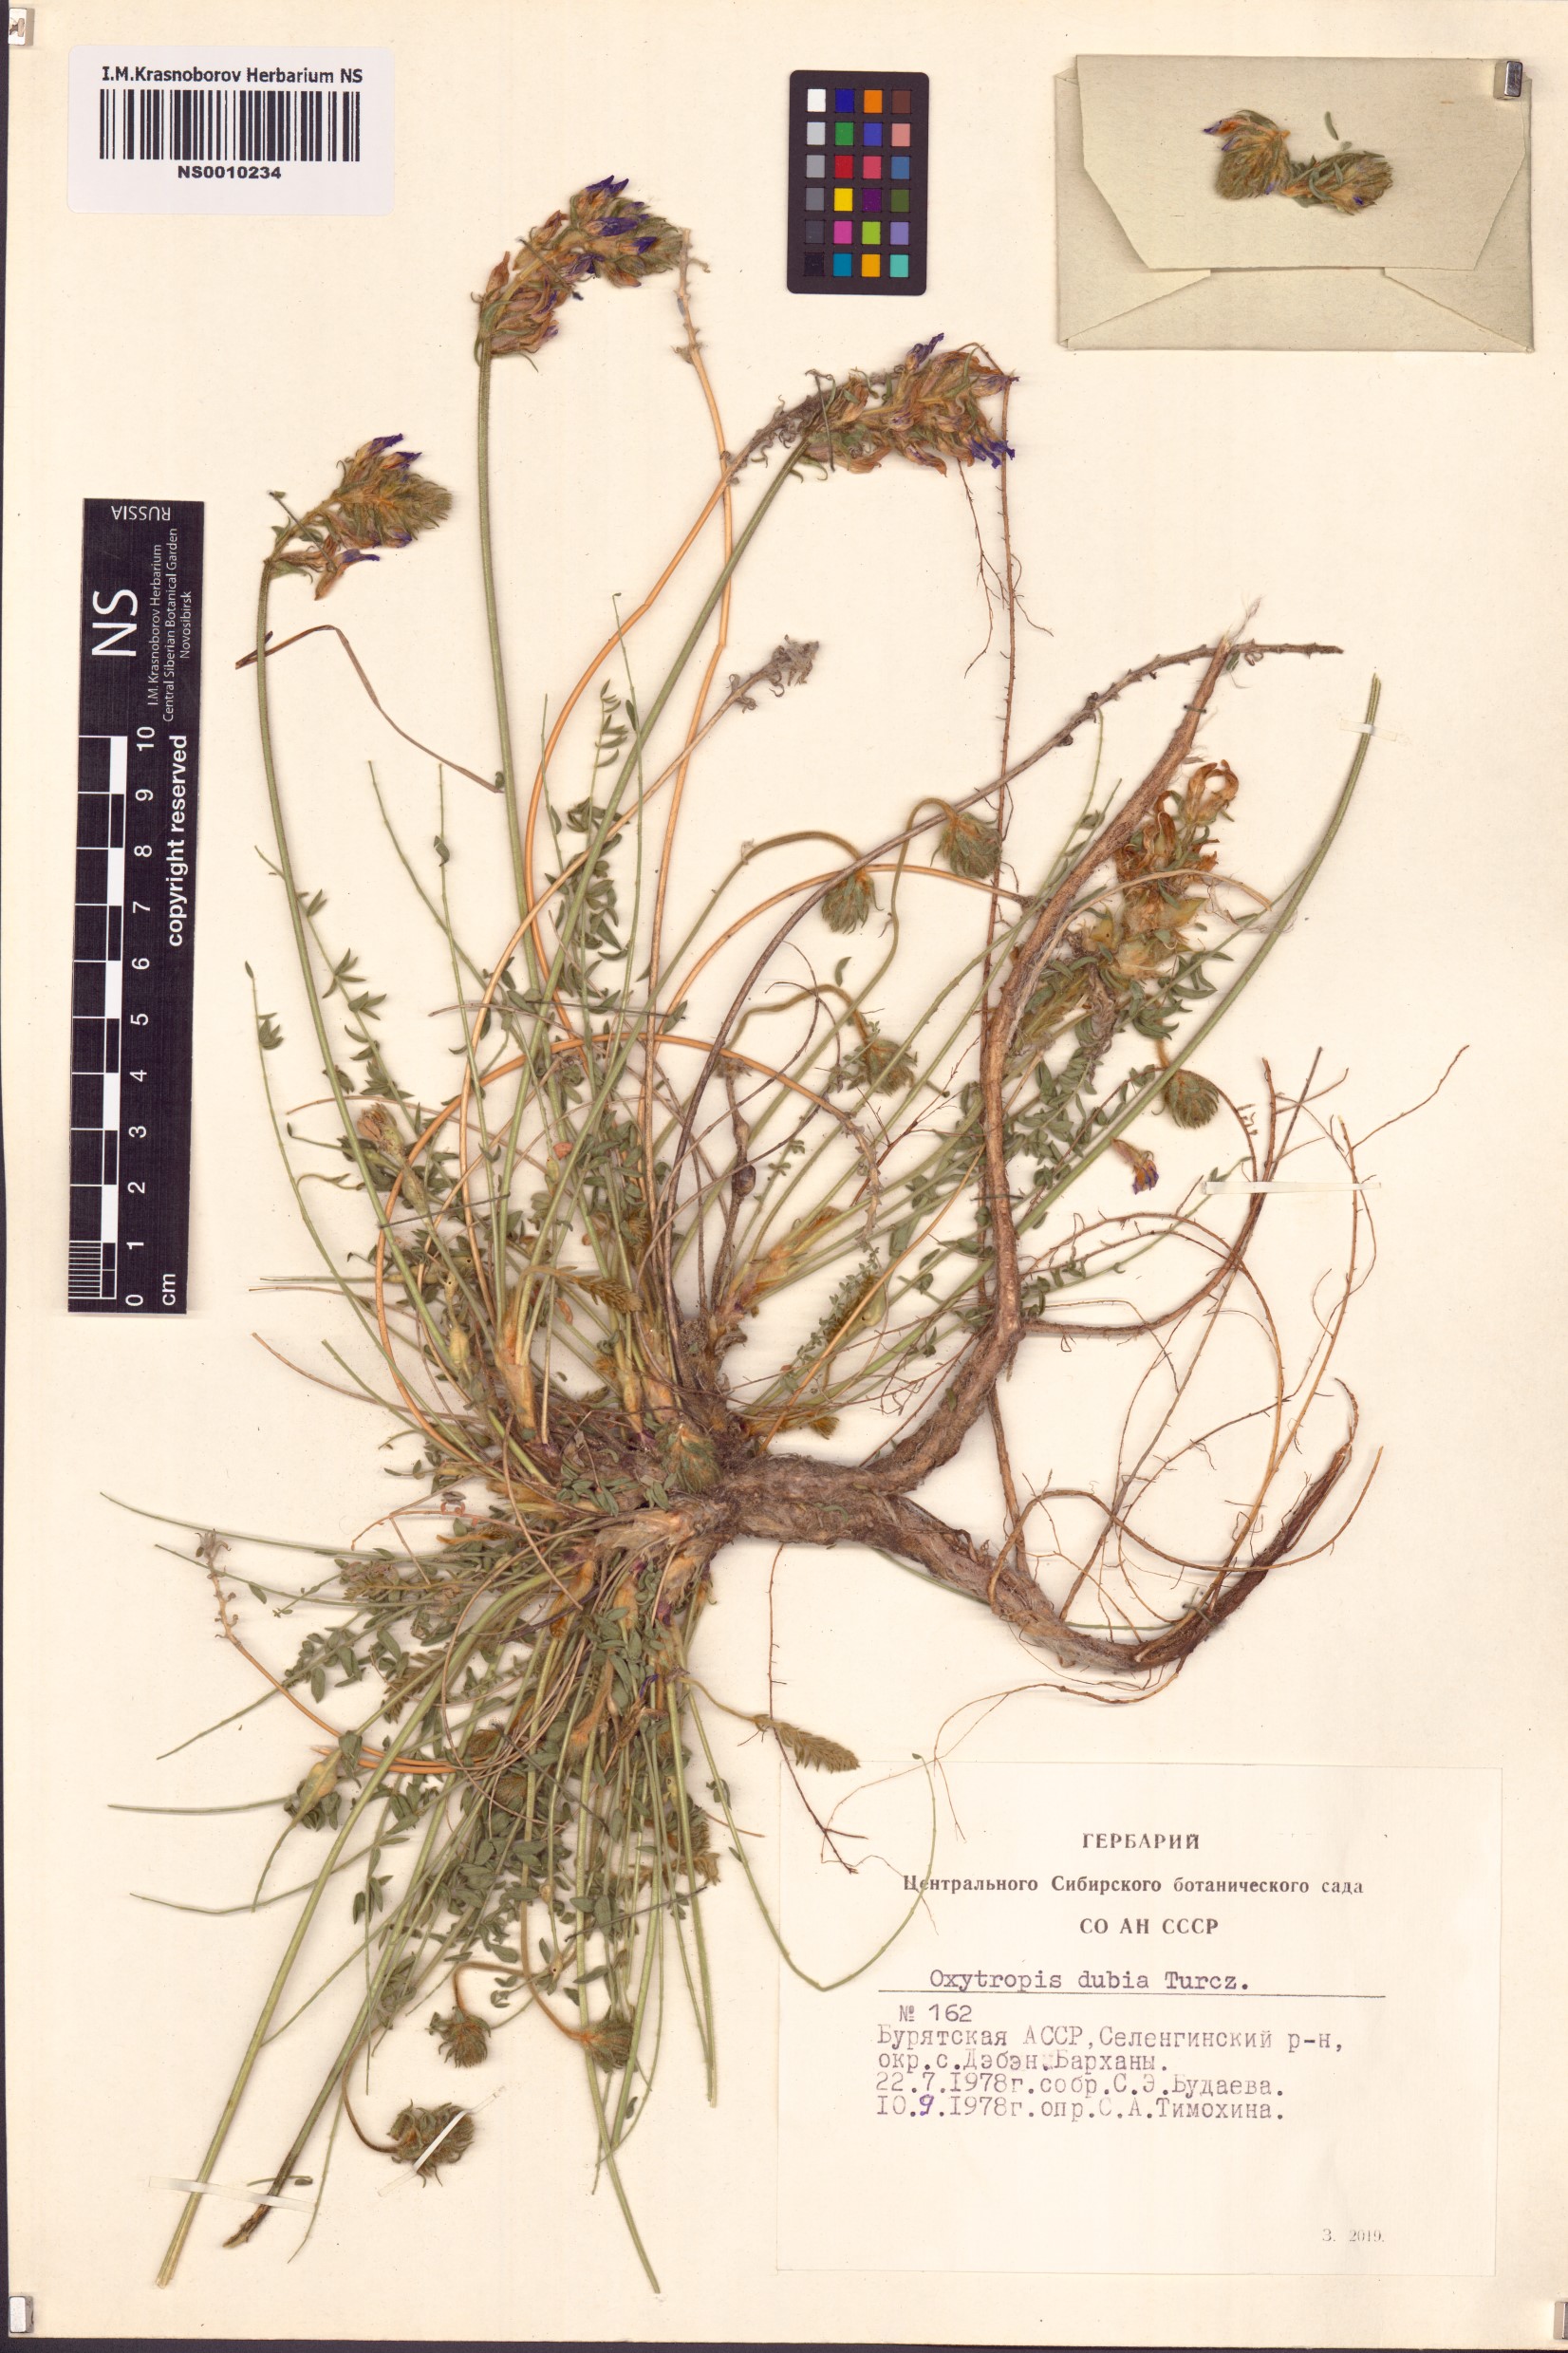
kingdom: Plantae
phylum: Tracheophyta
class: Magnoliopsida
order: Fabales
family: Fabaceae
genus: Oxytropis
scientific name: Oxytropis dubia
